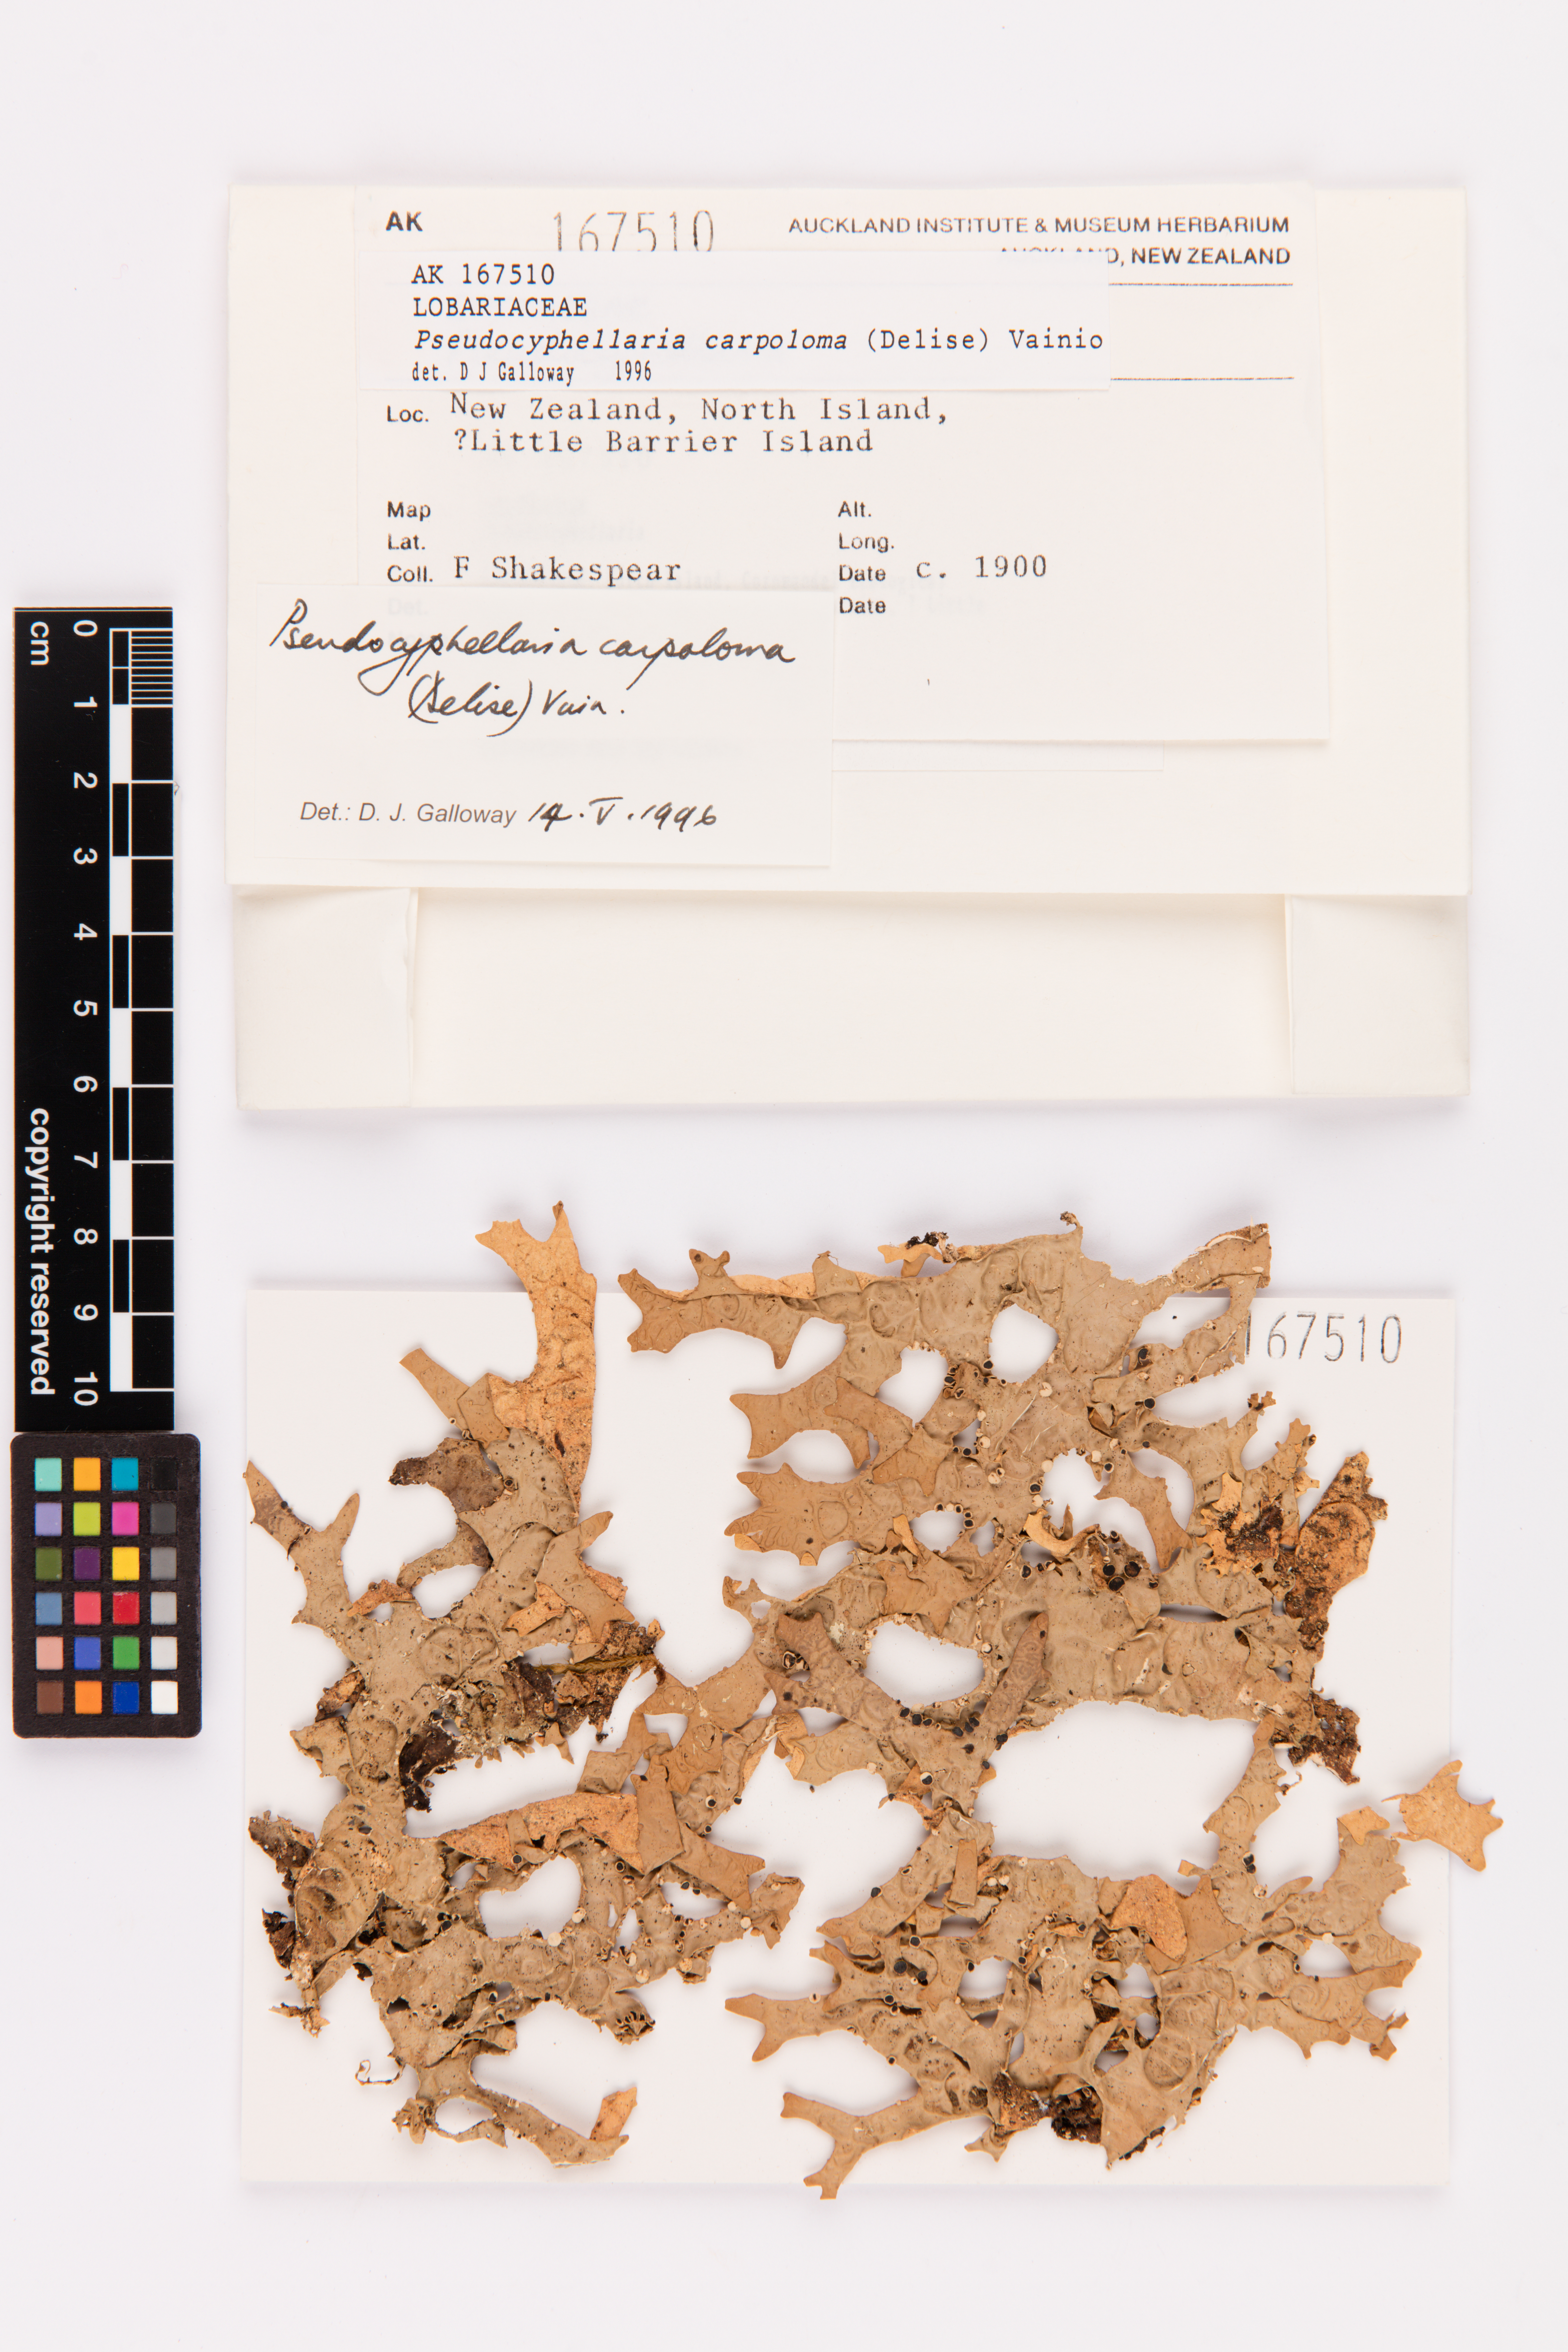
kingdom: Fungi
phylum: Ascomycota
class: Lecanoromycetes
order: Peltigerales
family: Lobariaceae
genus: Pseudocyphellaria
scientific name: Pseudocyphellaria carpoloma
